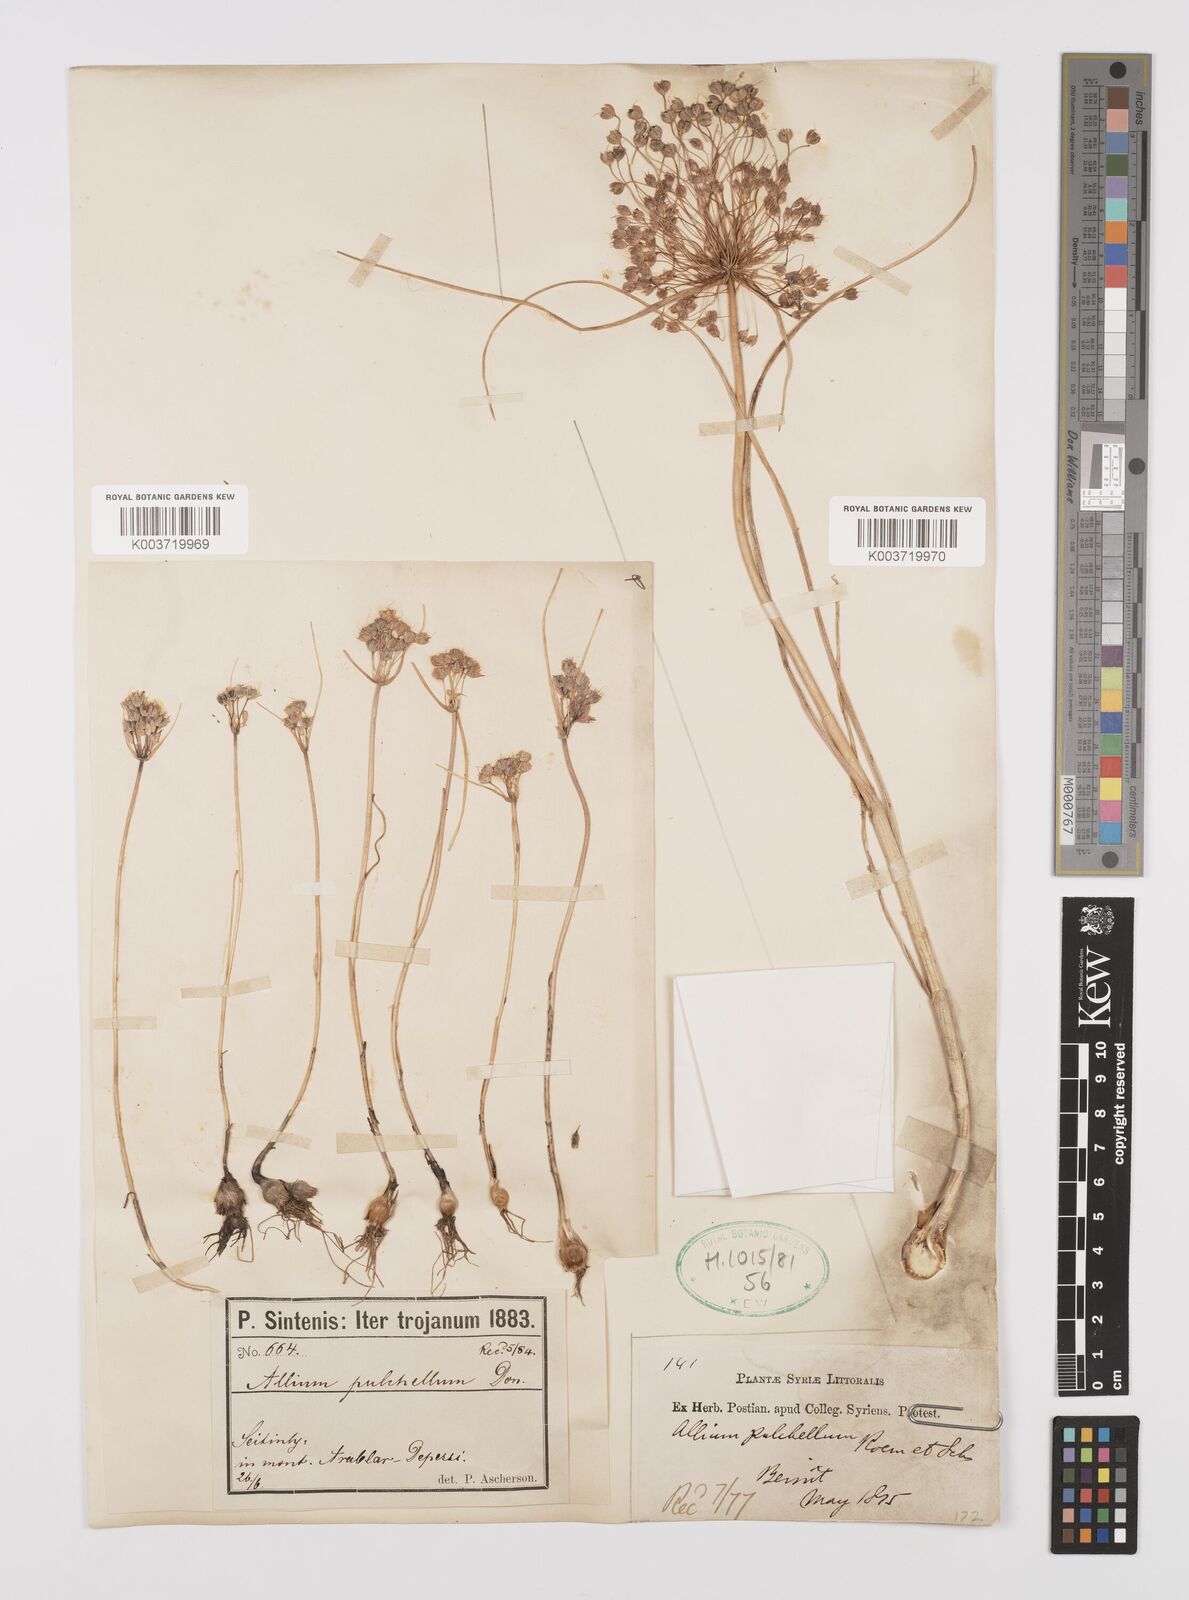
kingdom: Plantae
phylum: Tracheophyta
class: Liliopsida
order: Asparagales
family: Amaryllidaceae
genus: Allium
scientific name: Allium coloratum
